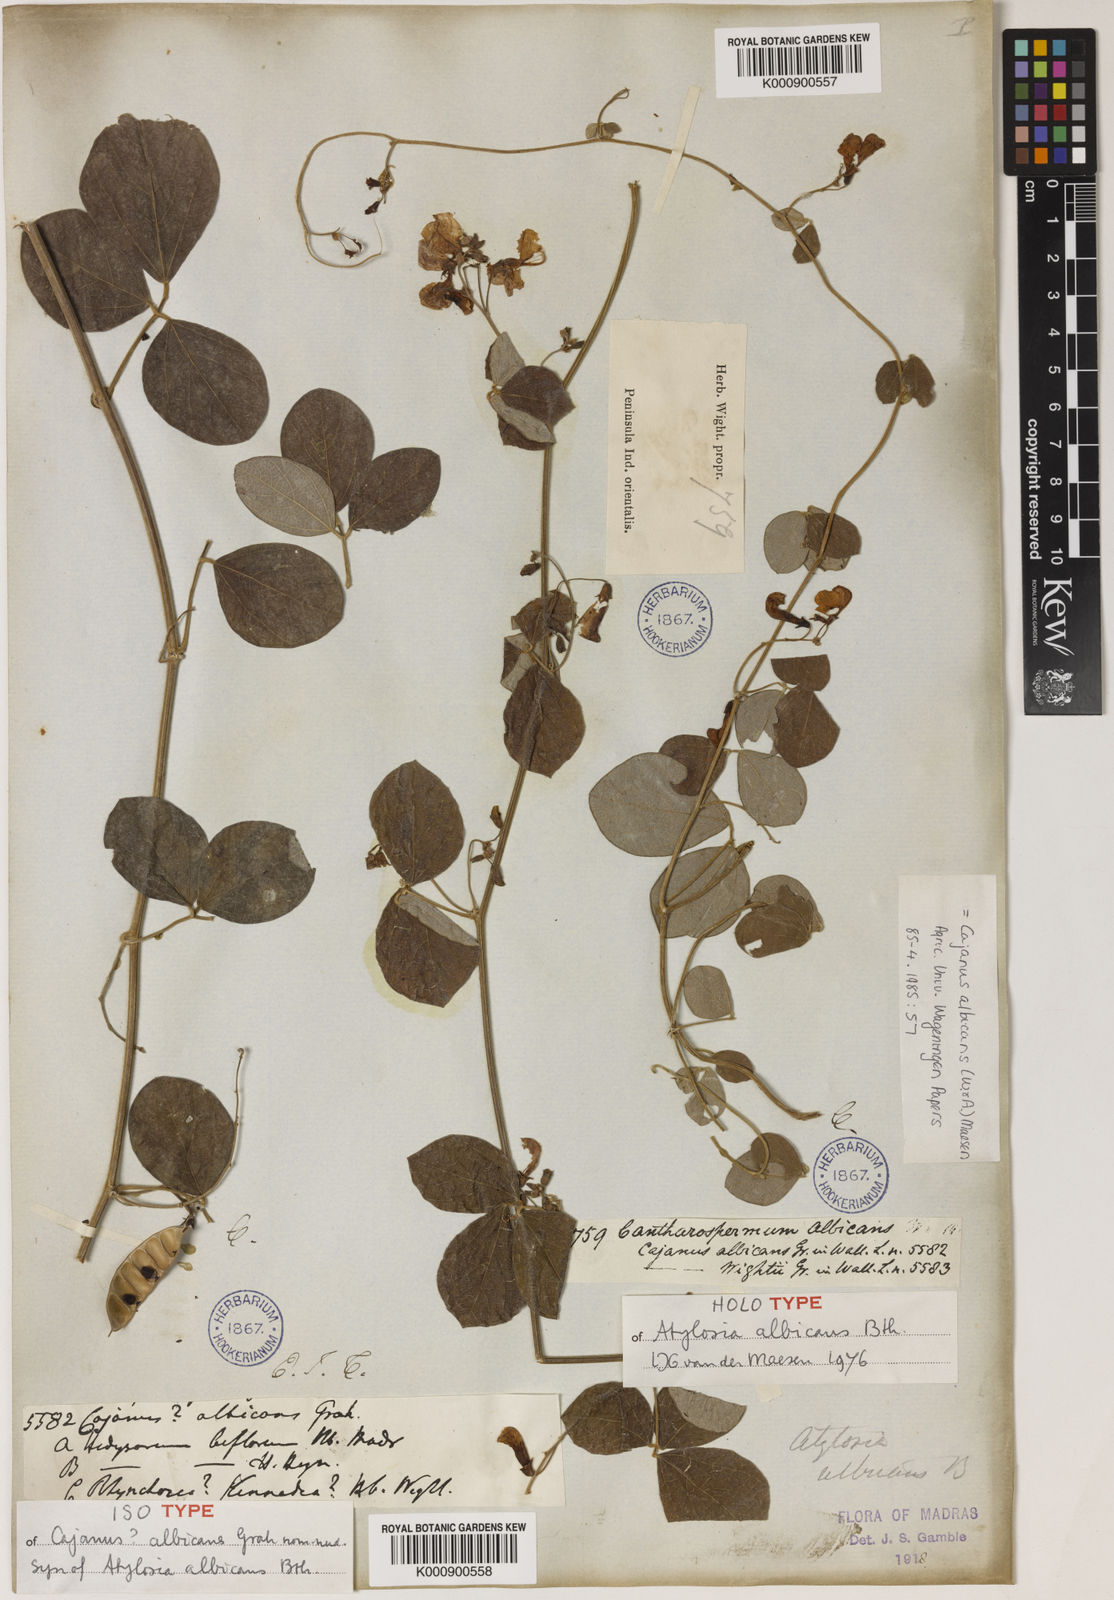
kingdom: Plantae
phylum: Tracheophyta
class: Magnoliopsida
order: Fabales
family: Fabaceae
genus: Cajanus
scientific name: Cajanus albicans
